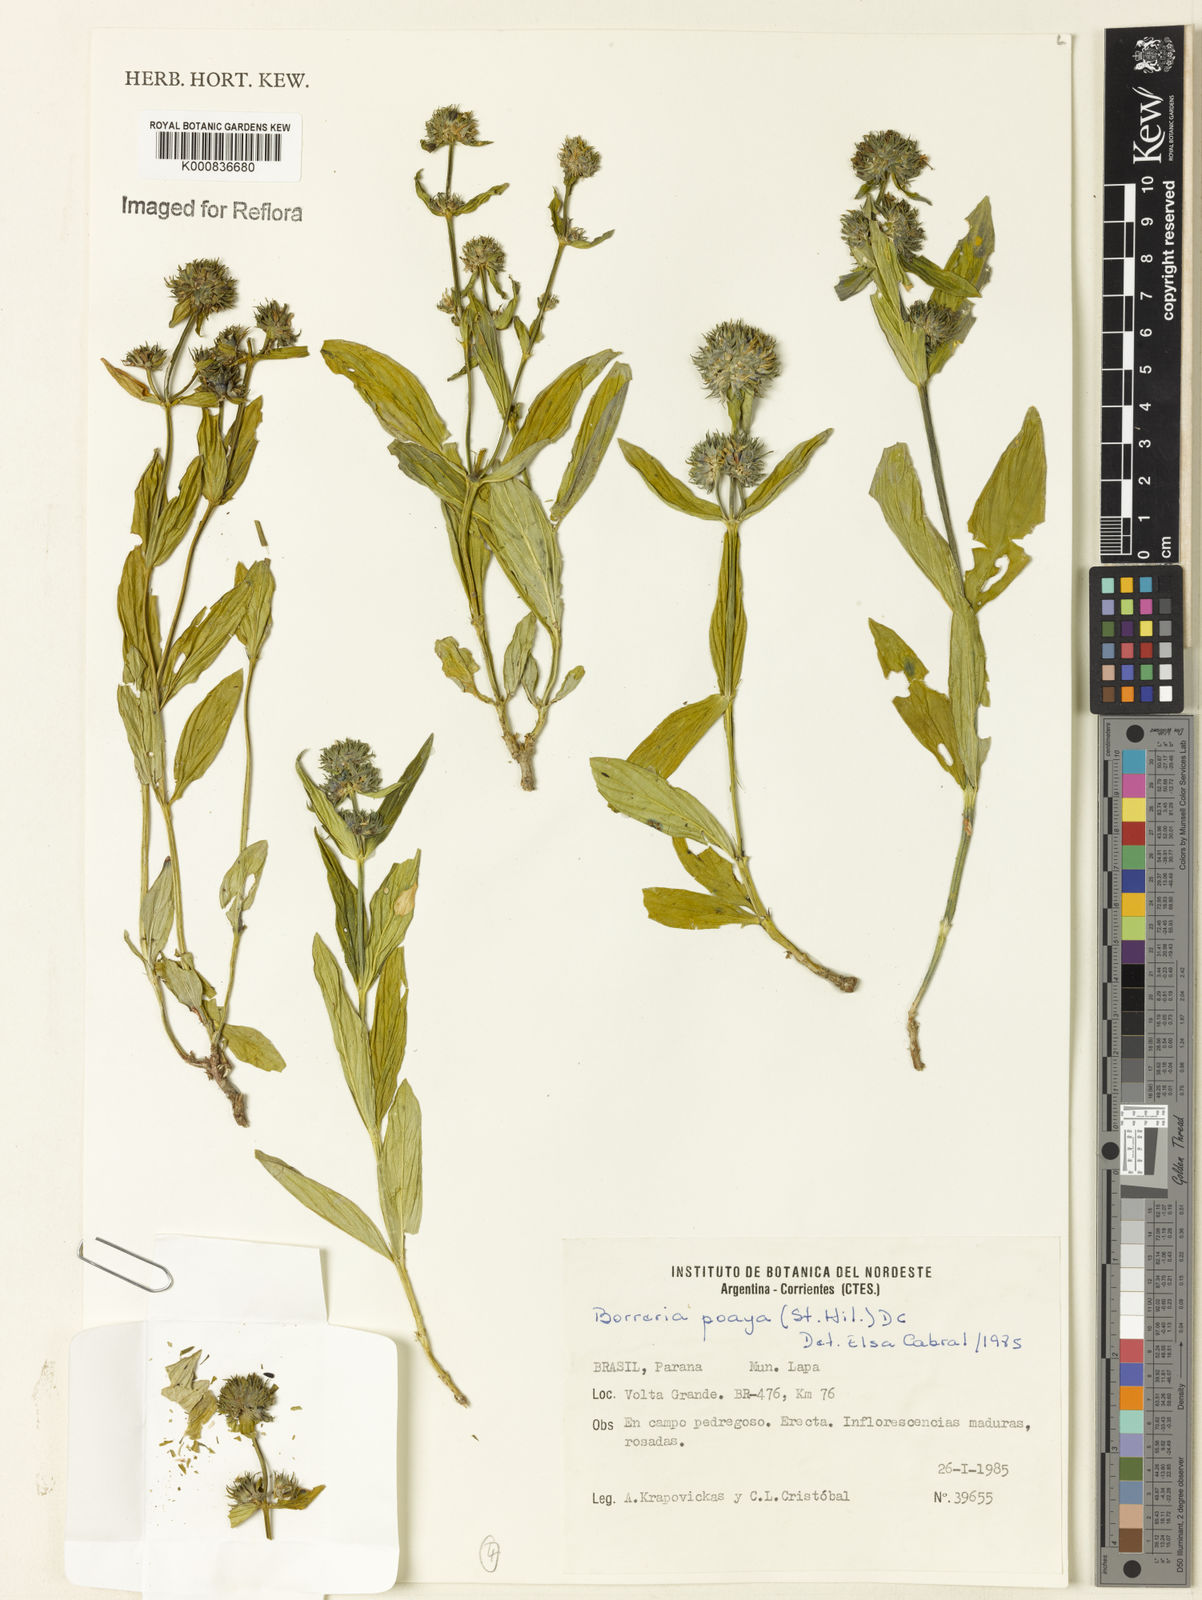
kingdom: Plantae
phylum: Tracheophyta
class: Magnoliopsida
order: Gentianales
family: Rubiaceae
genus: Spermacoce
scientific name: Spermacoce poaya
